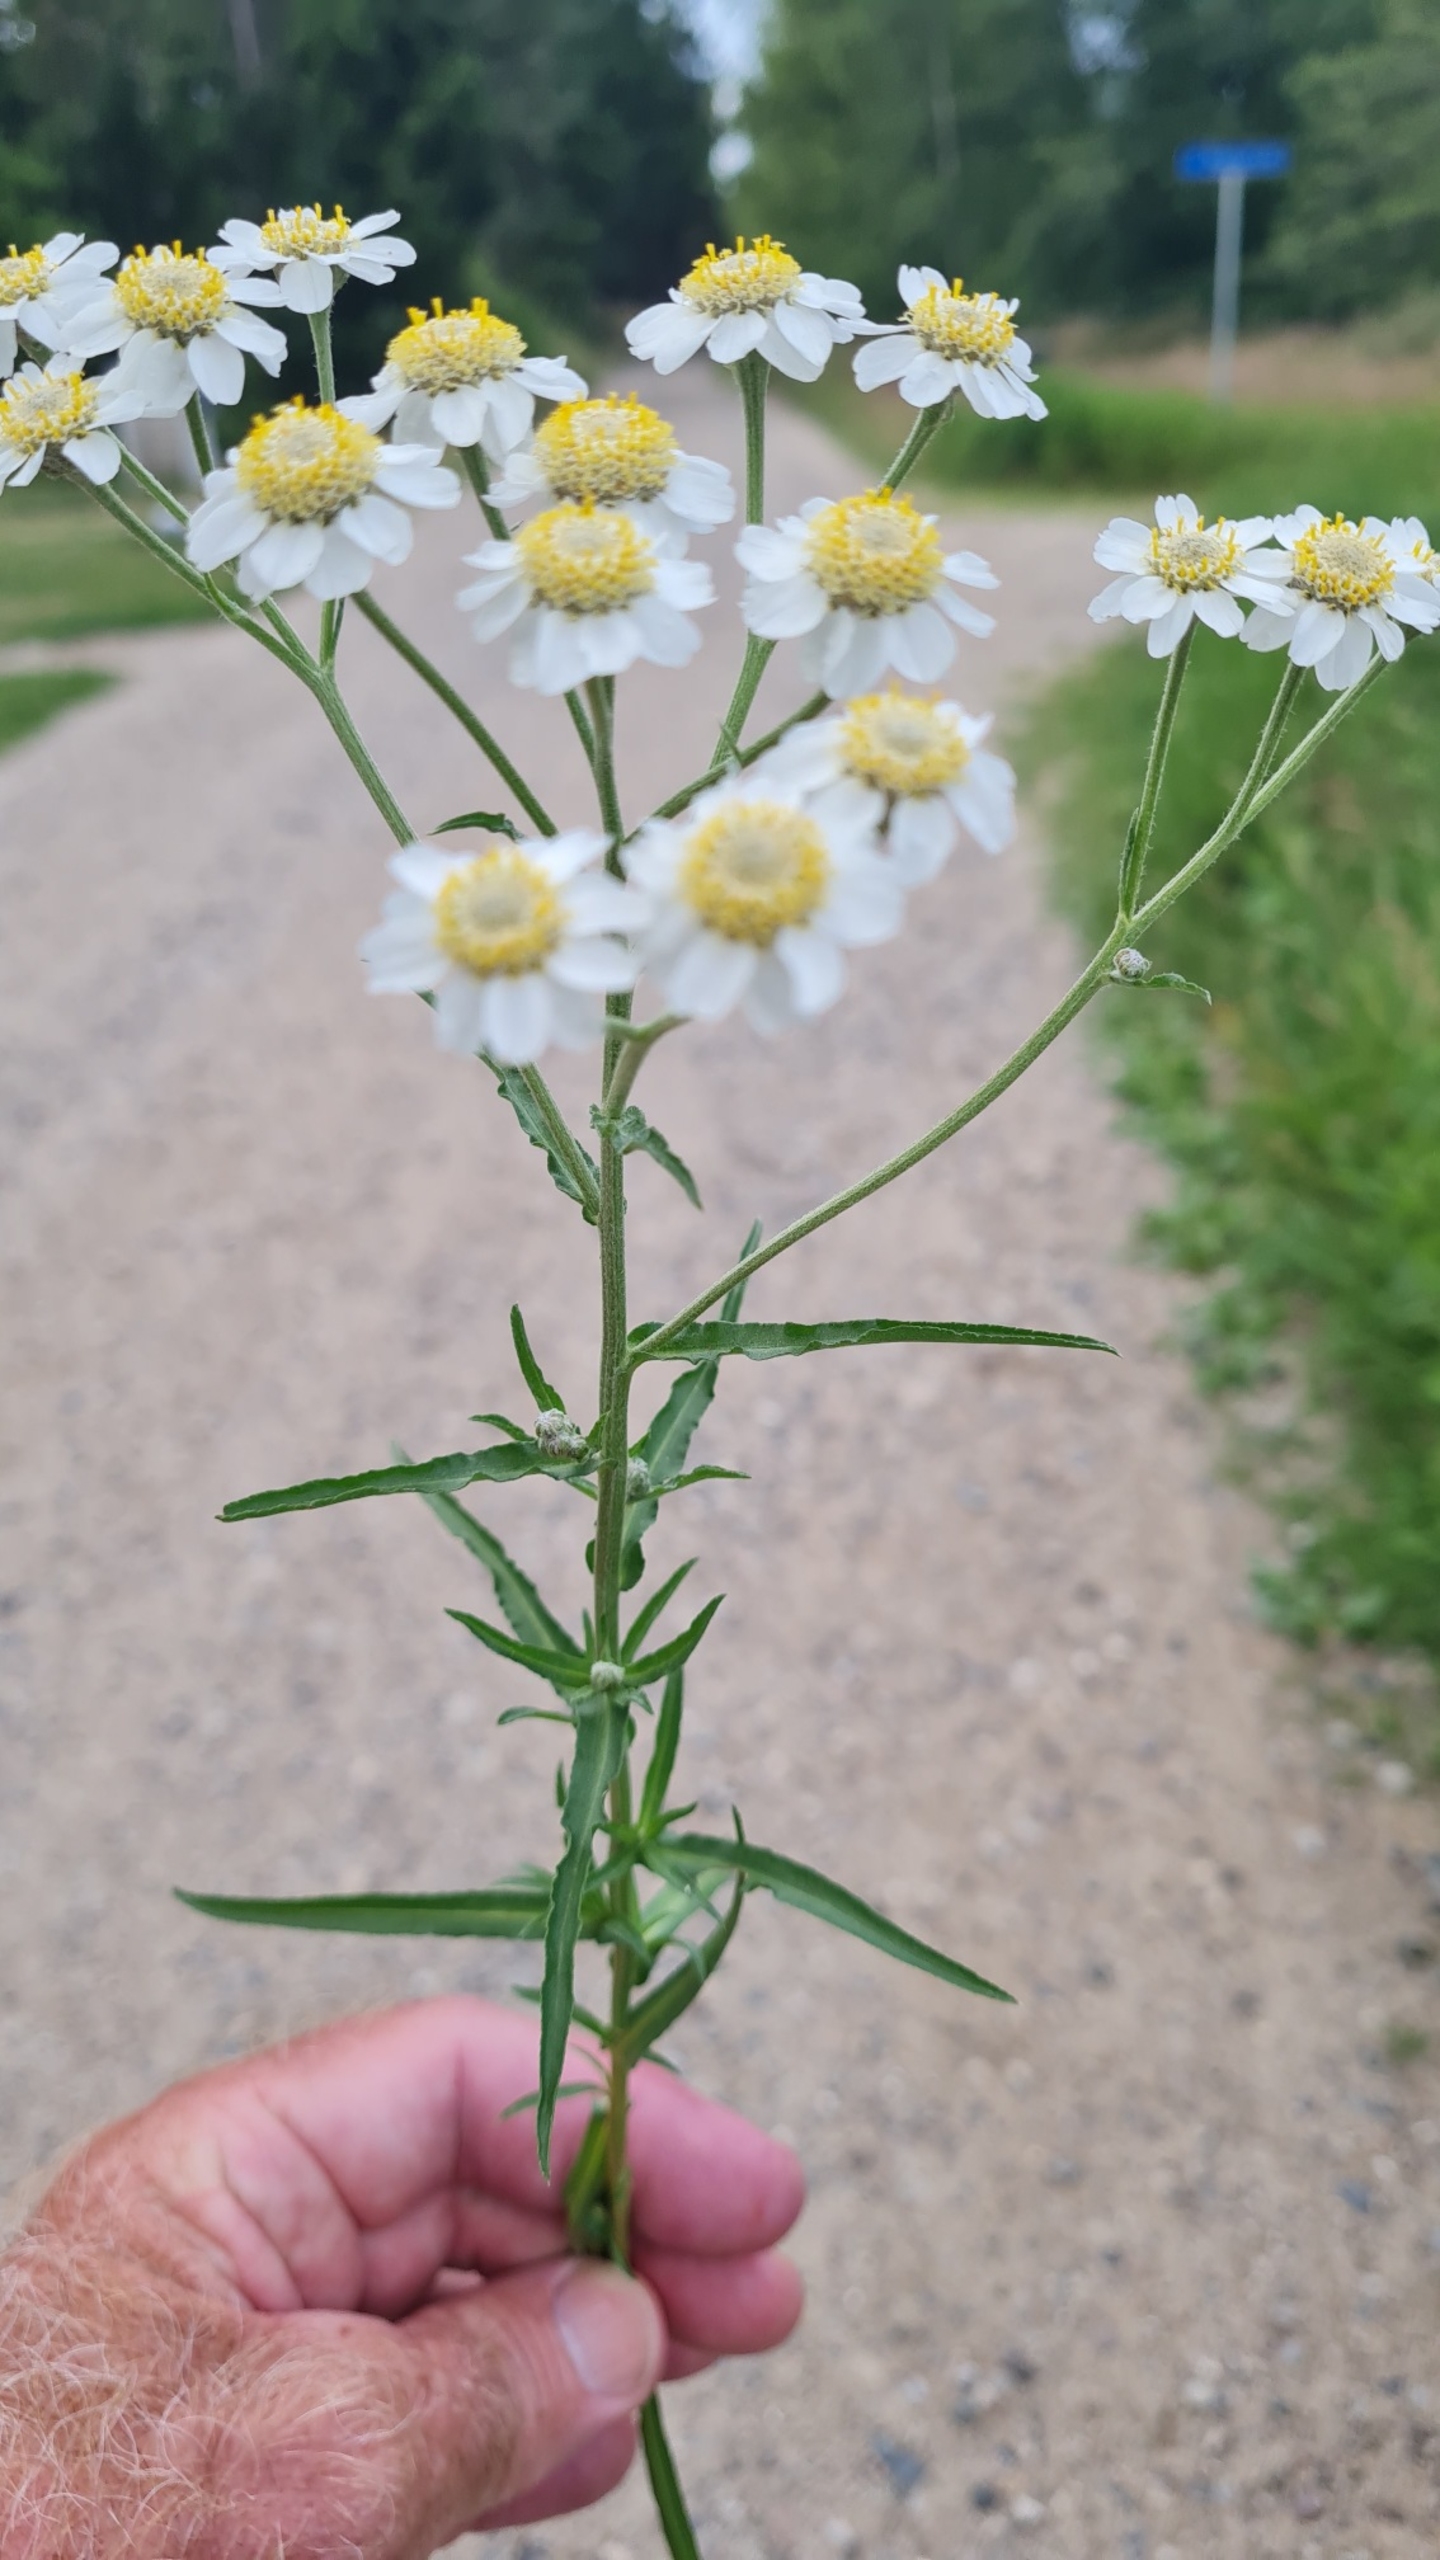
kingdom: Plantae
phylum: Tracheophyta
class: Magnoliopsida
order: Asterales
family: Asteraceae
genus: Achillea
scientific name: Achillea ptarmica
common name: Nyse-røllike
